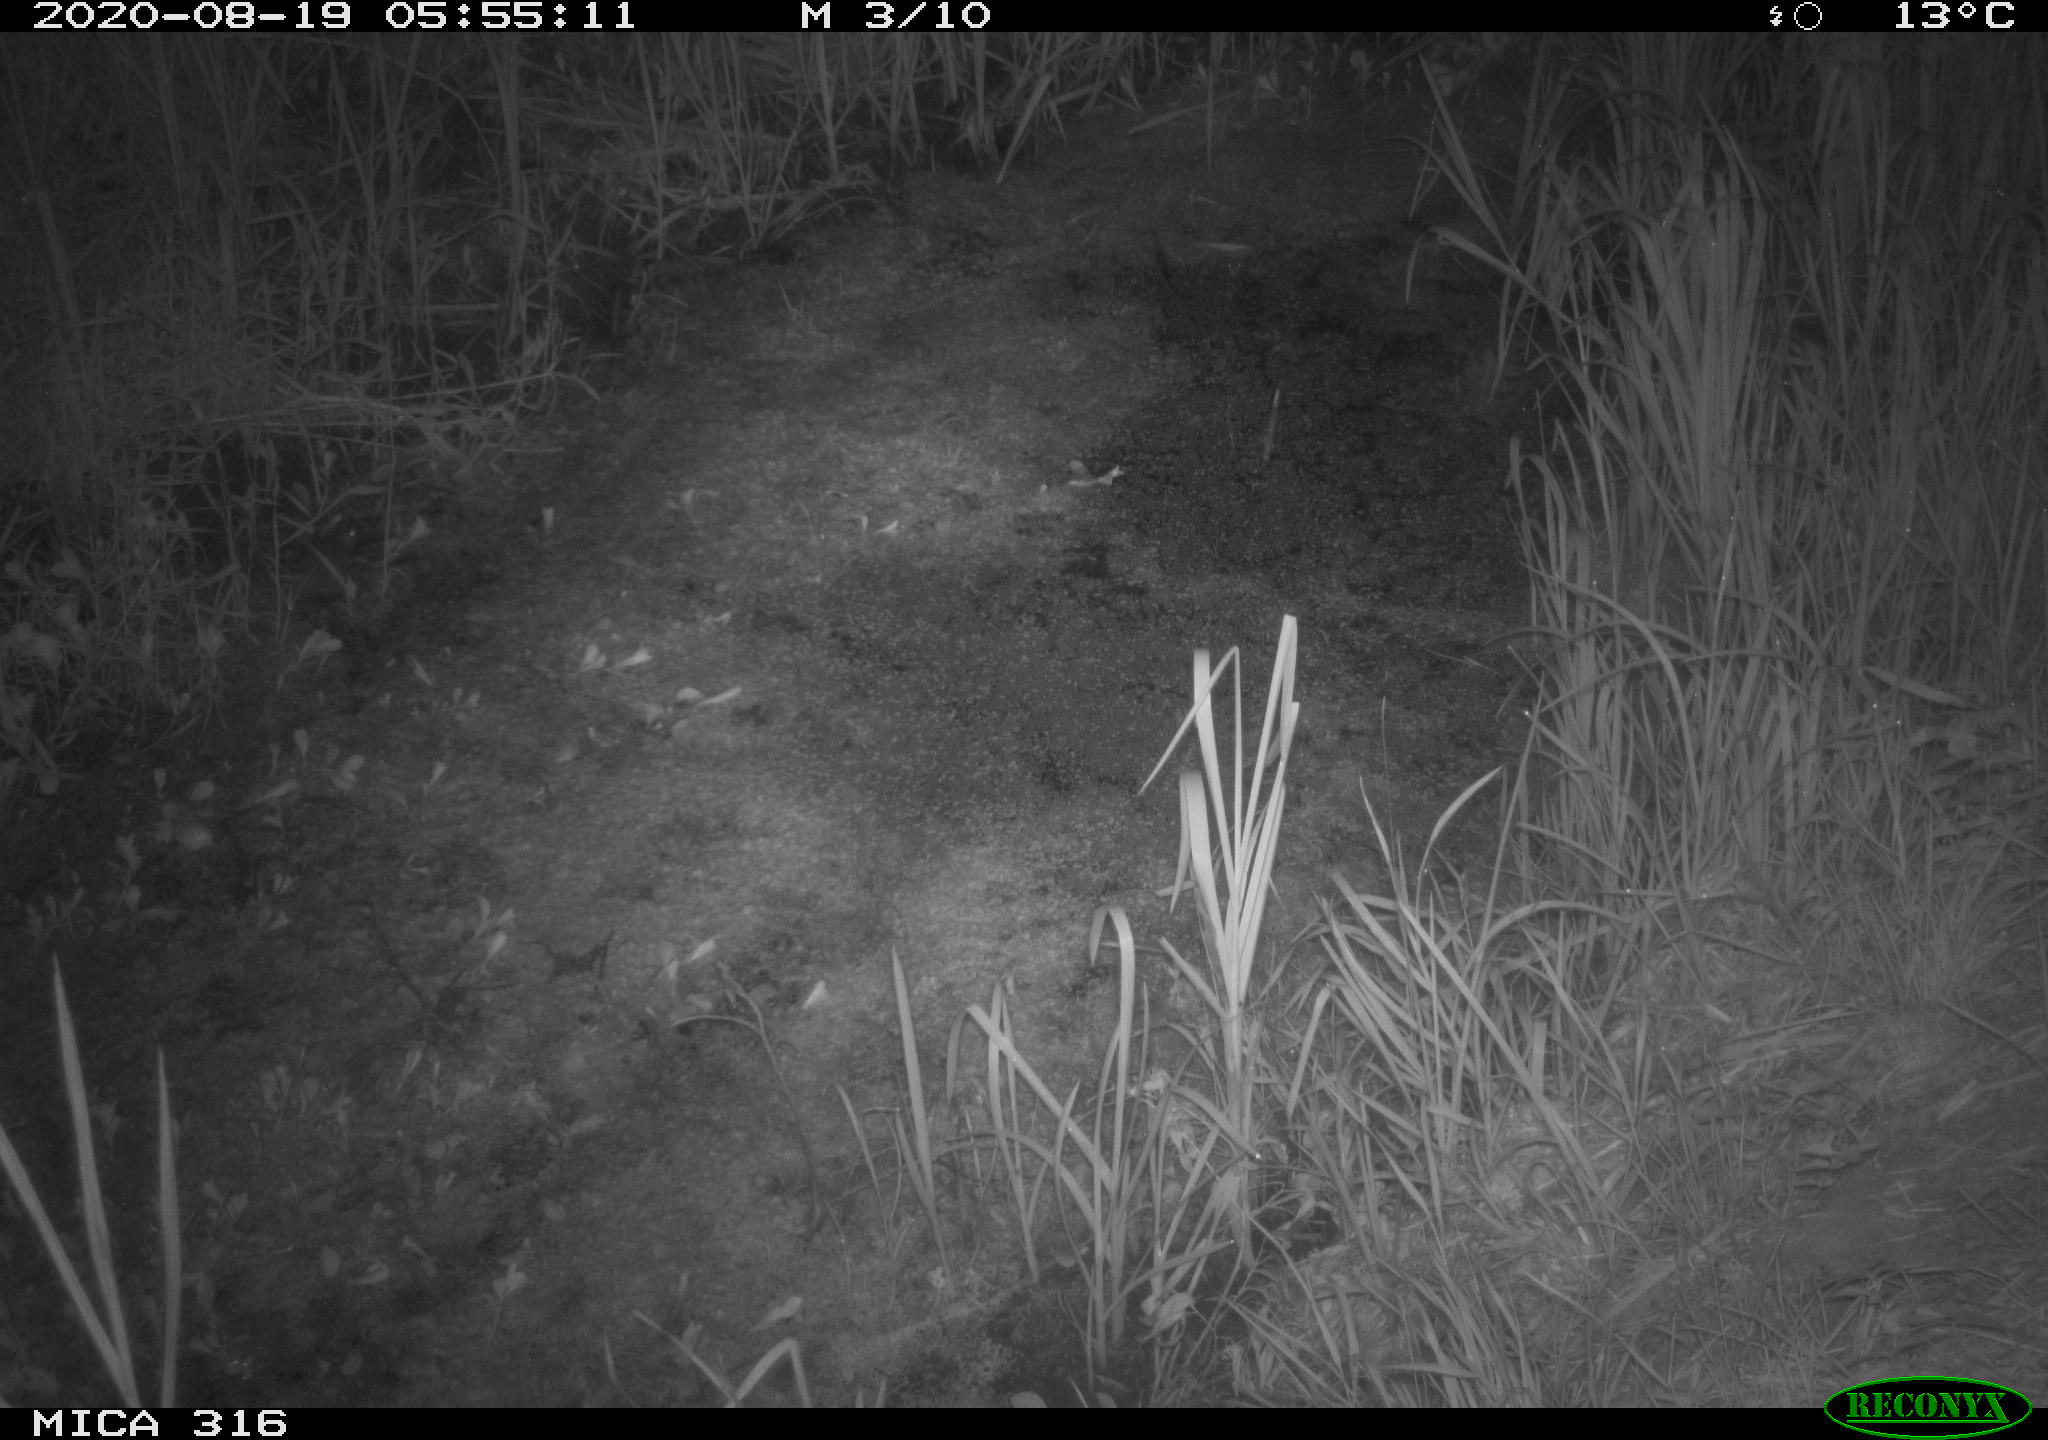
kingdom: Animalia
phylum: Chordata
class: Mammalia
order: Rodentia
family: Muridae
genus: Rattus
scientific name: Rattus norvegicus
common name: Brown rat
